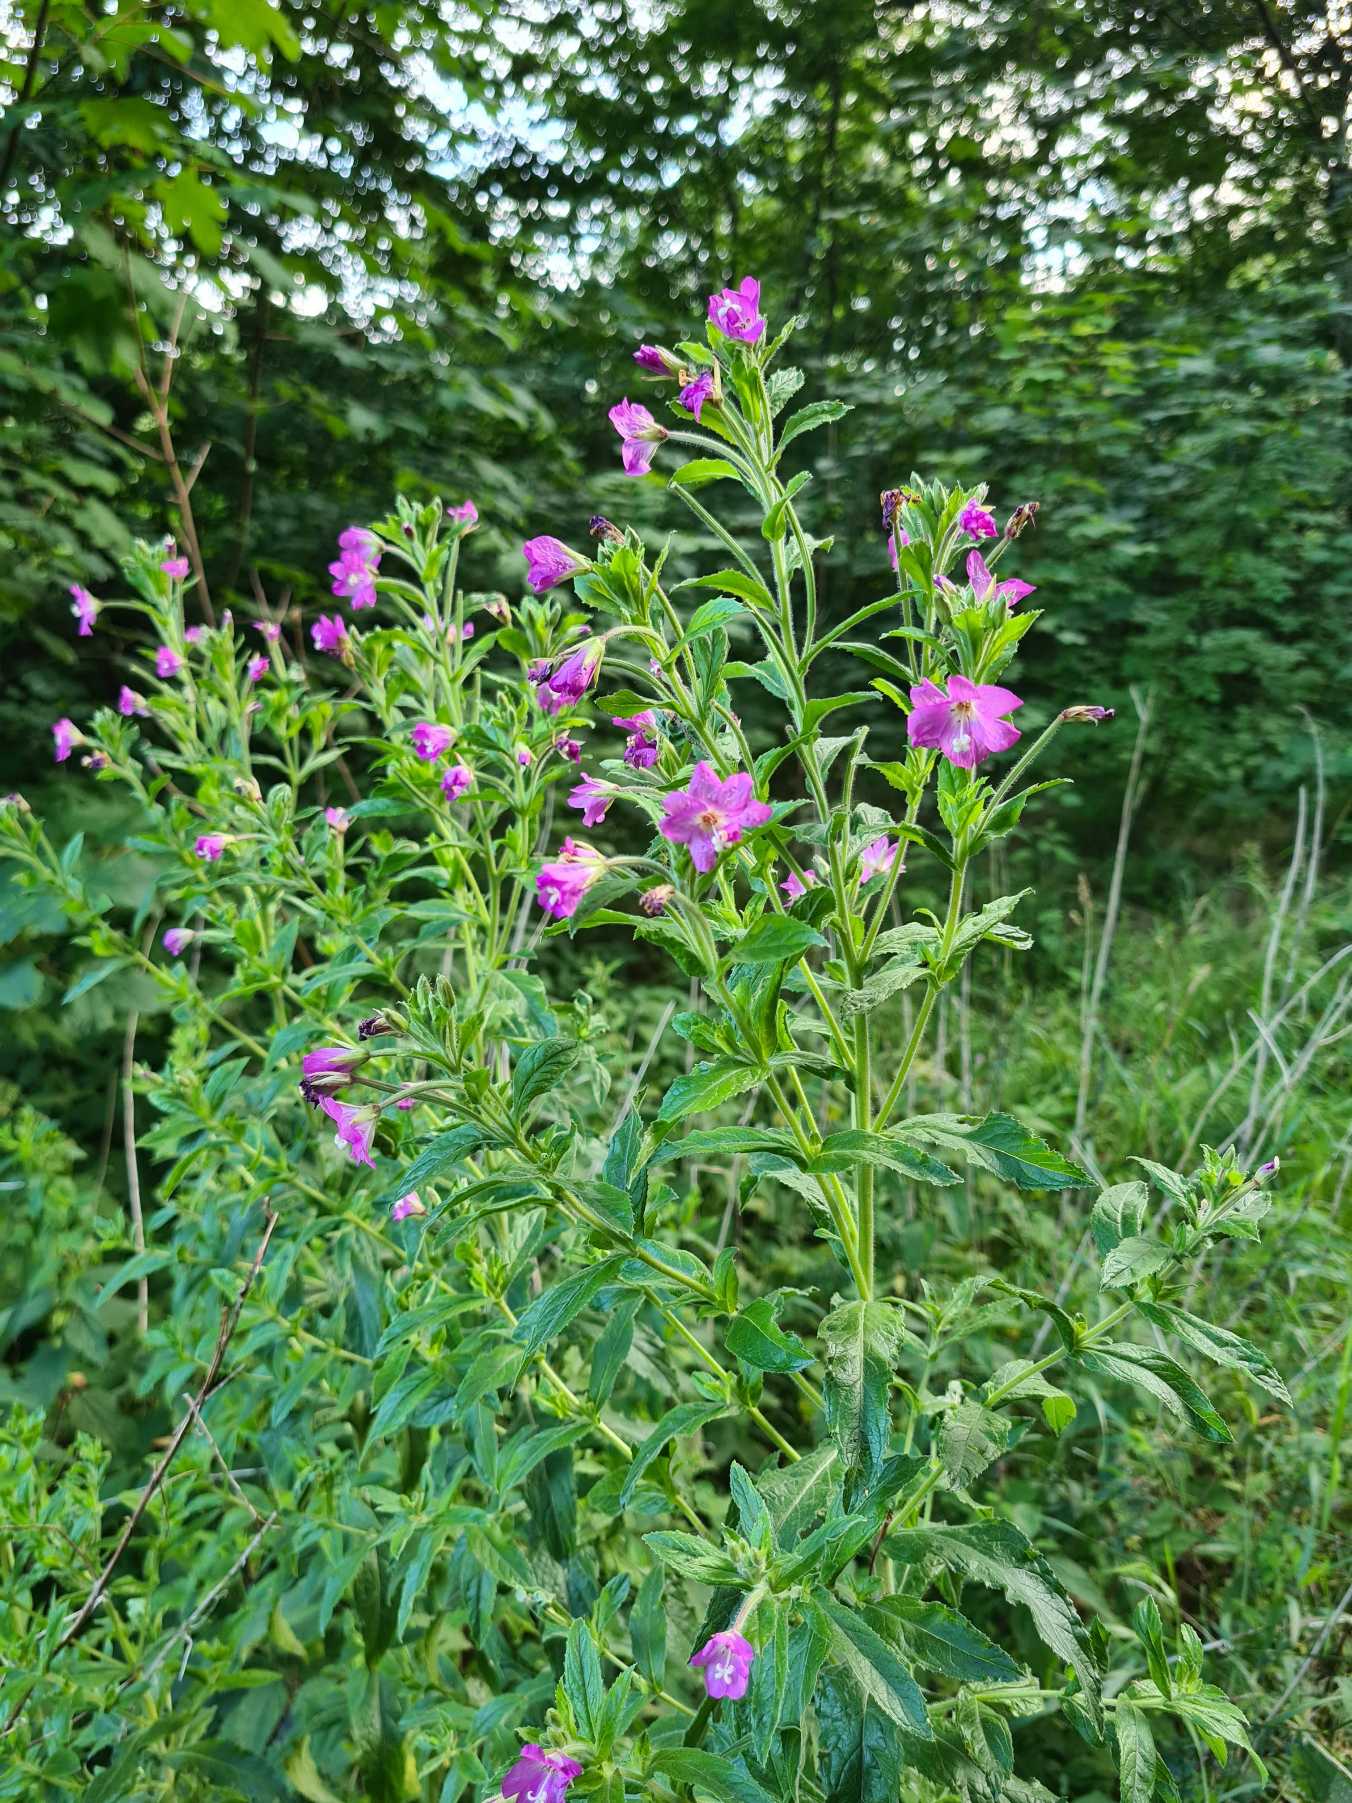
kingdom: Plantae
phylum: Tracheophyta
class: Magnoliopsida
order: Myrtales
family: Onagraceae
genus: Epilobium
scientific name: Epilobium hirsutum
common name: Lådden dueurt
